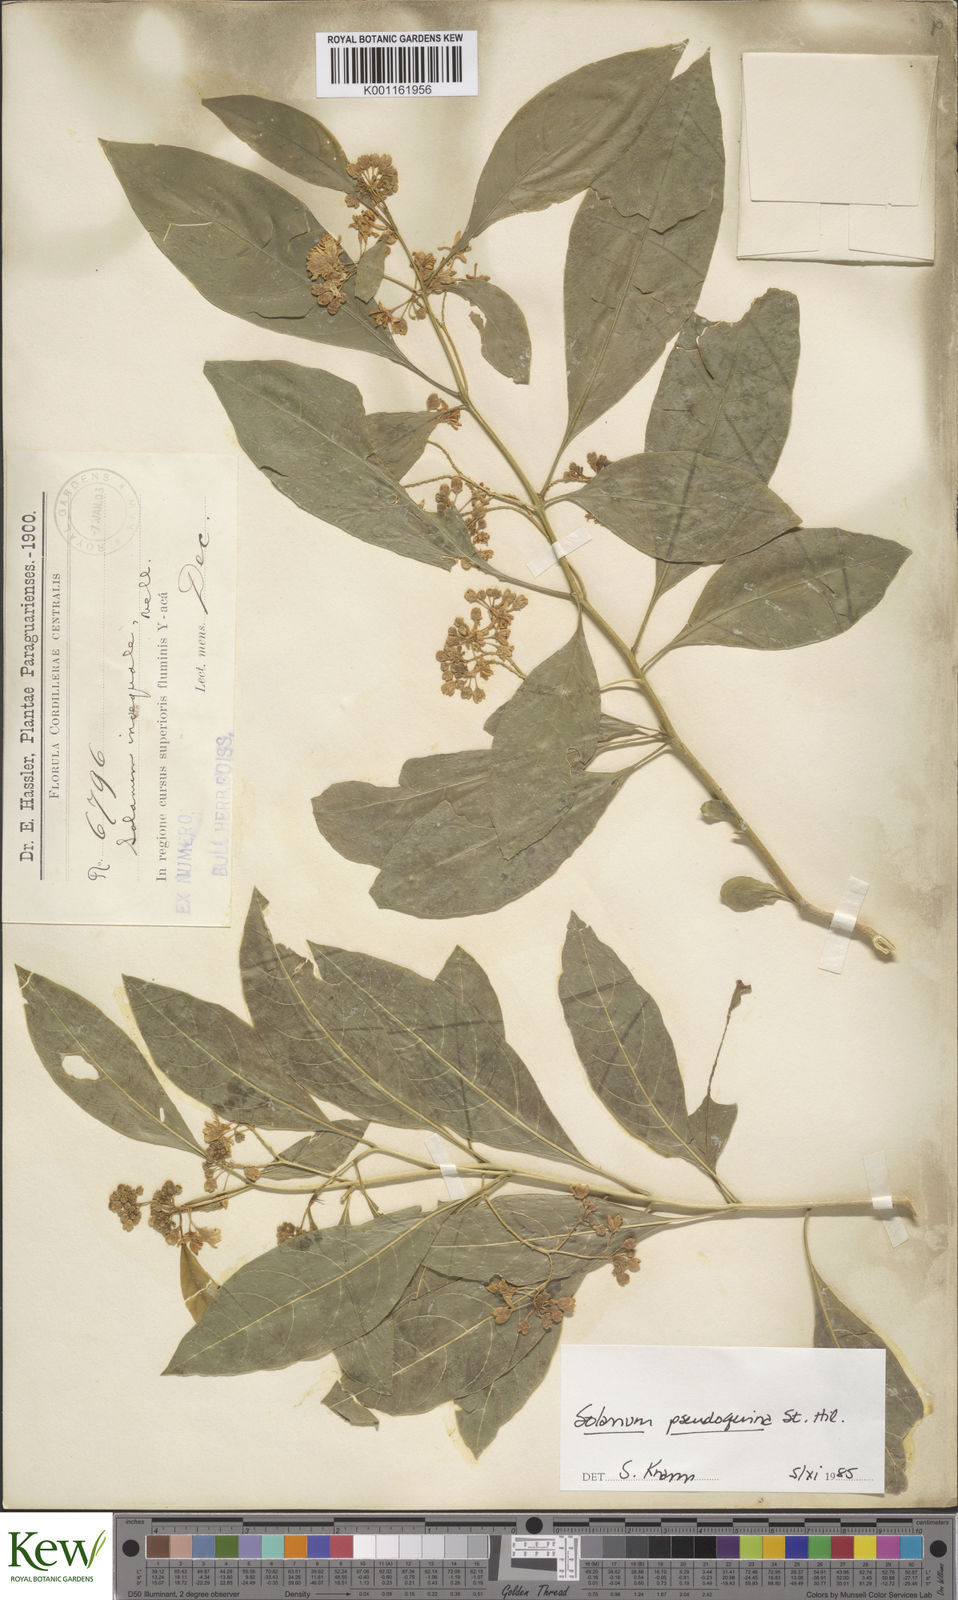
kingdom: Plantae
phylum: Tracheophyta
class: Magnoliopsida
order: Solanales
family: Solanaceae
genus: Solanum
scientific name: Solanum pseudoquina
